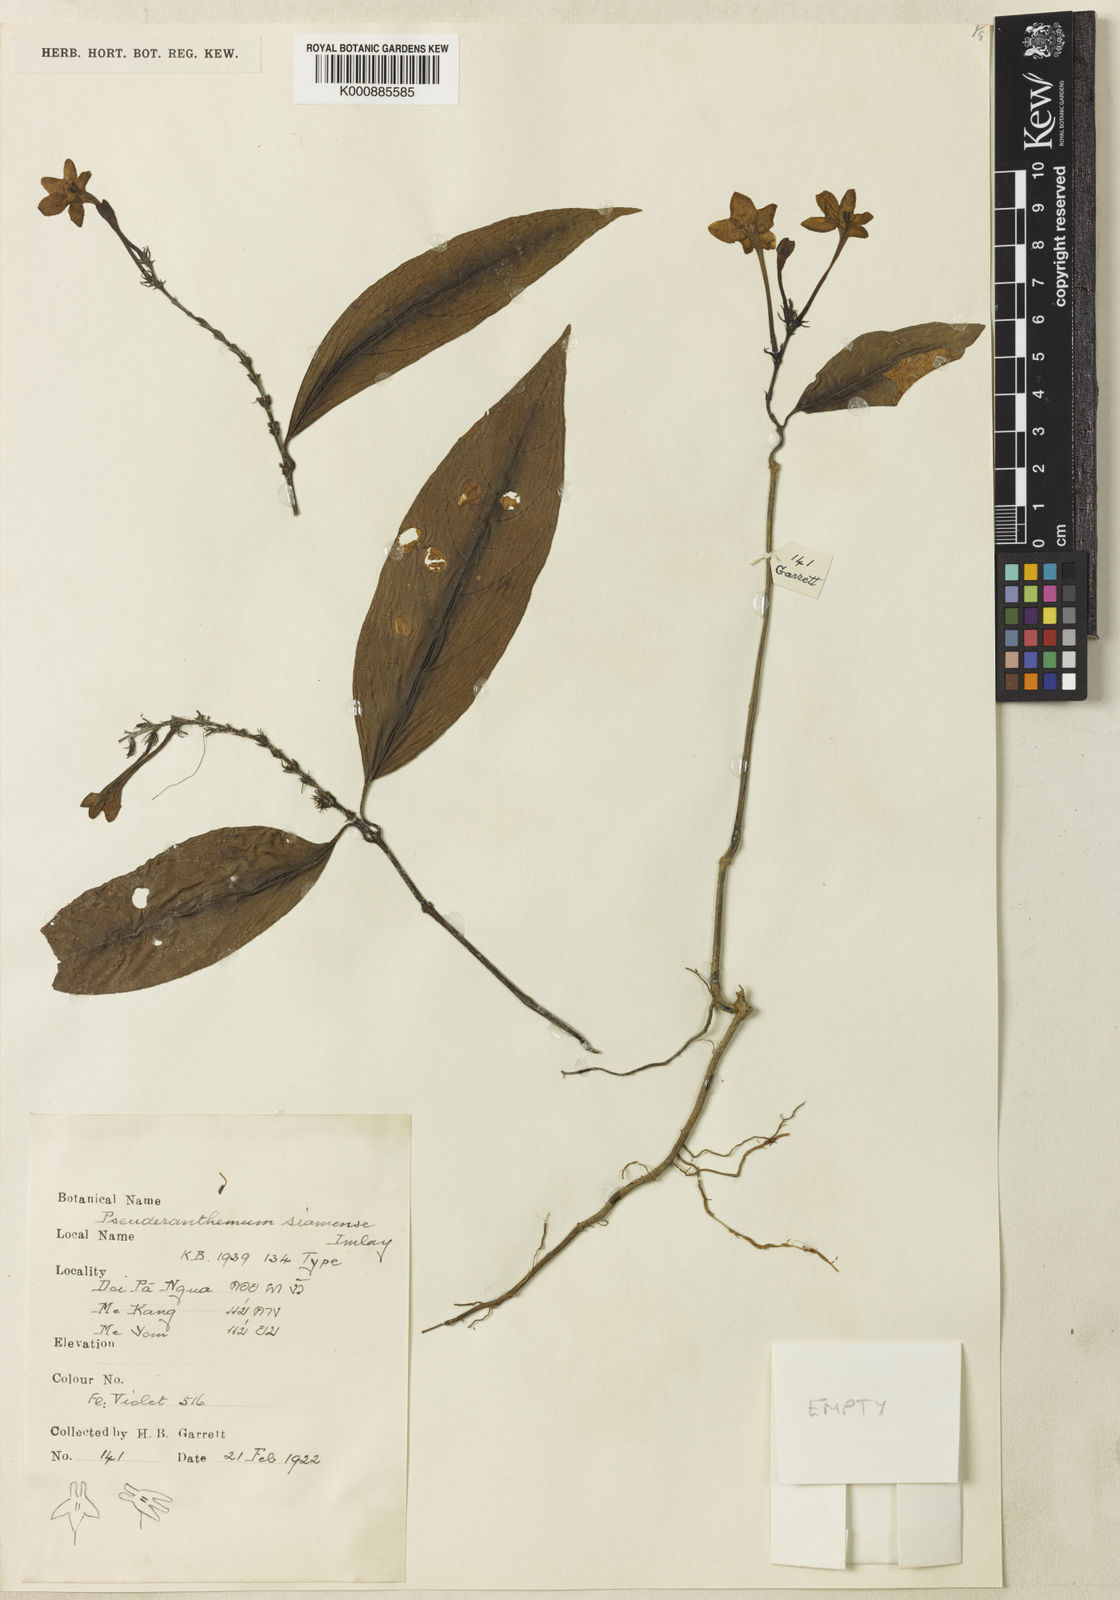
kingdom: Plantae
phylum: Tracheophyta
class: Magnoliopsida
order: Lamiales
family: Acanthaceae
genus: Pseuderanthemum
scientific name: Pseuderanthemum siamense
